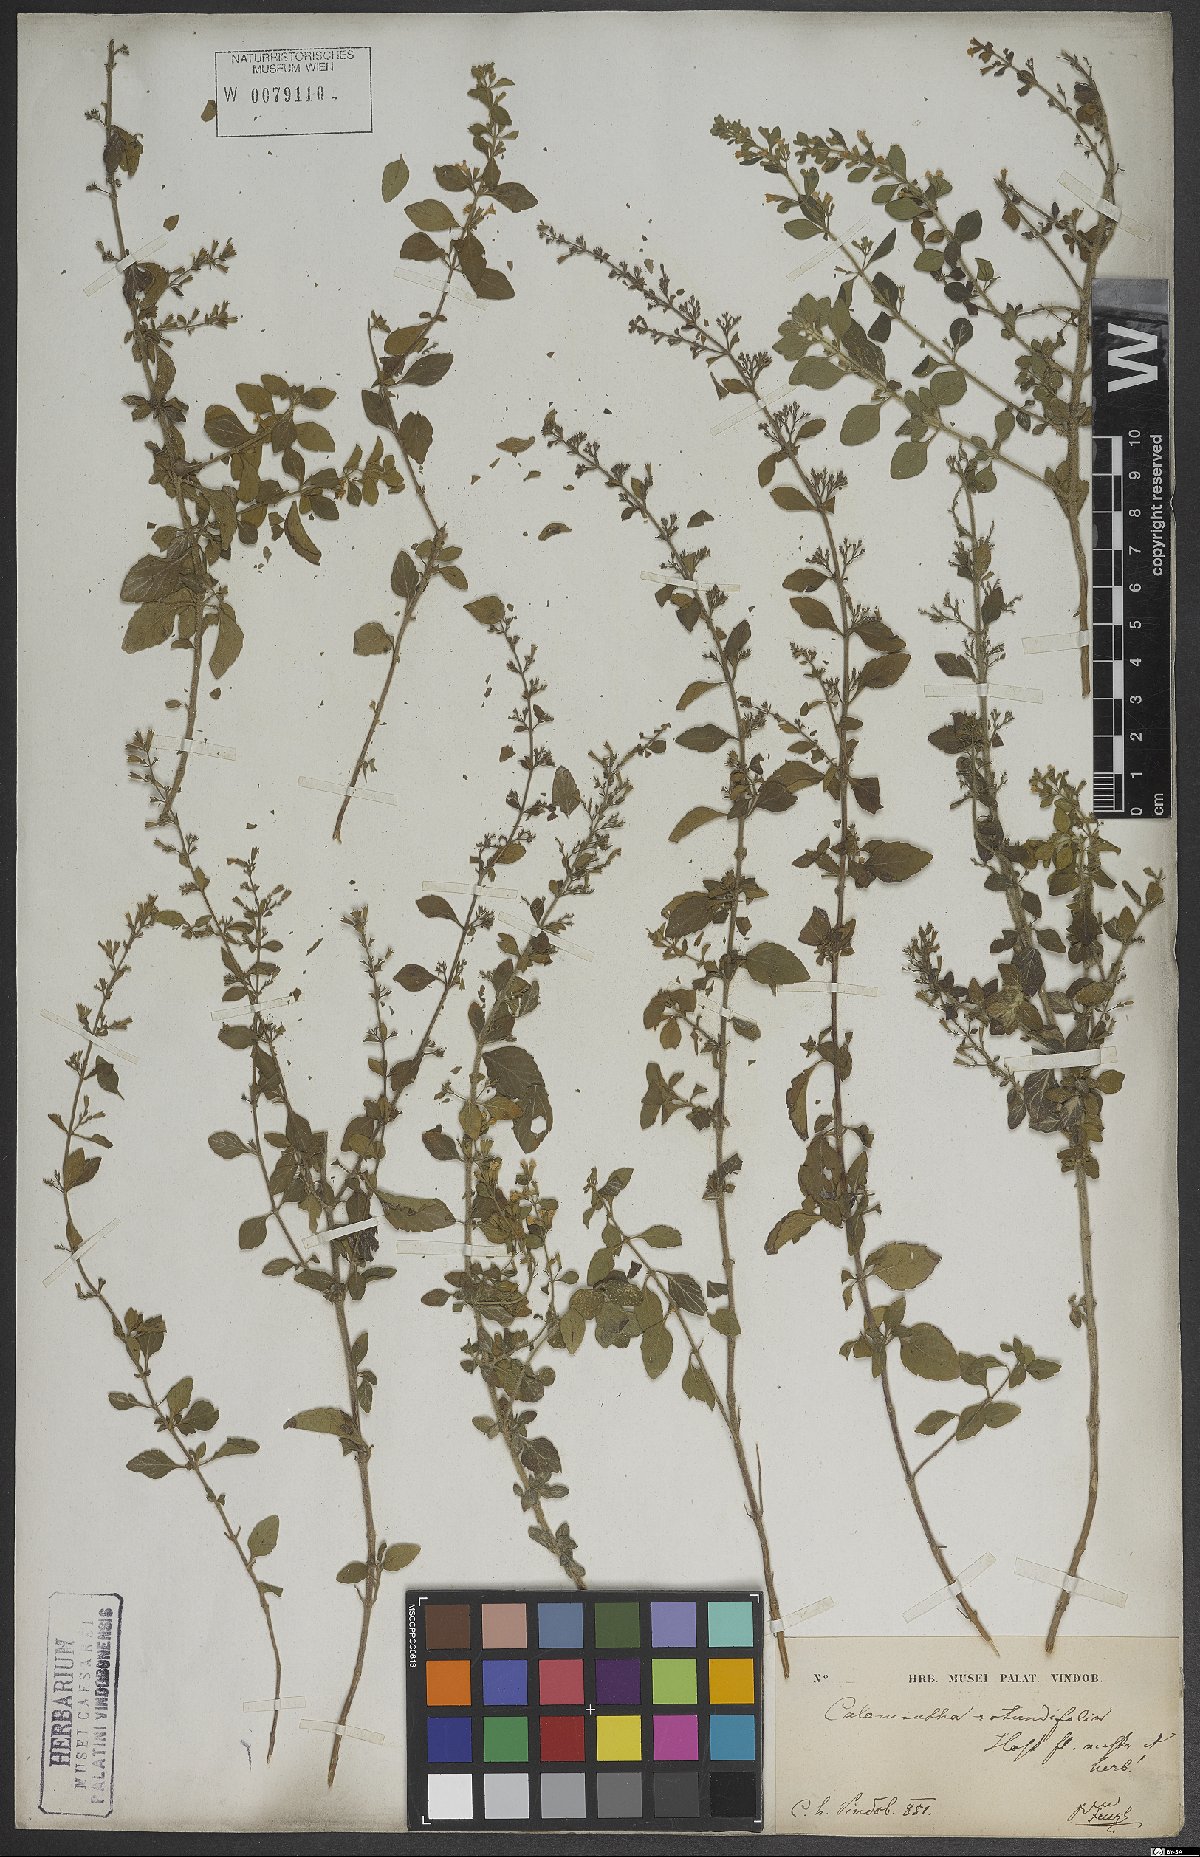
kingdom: Plantae
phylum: Tracheophyta
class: Magnoliopsida
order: Lamiales
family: Lamiaceae
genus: Clinopodium
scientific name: Clinopodium nepeta
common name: Lesser calamint
